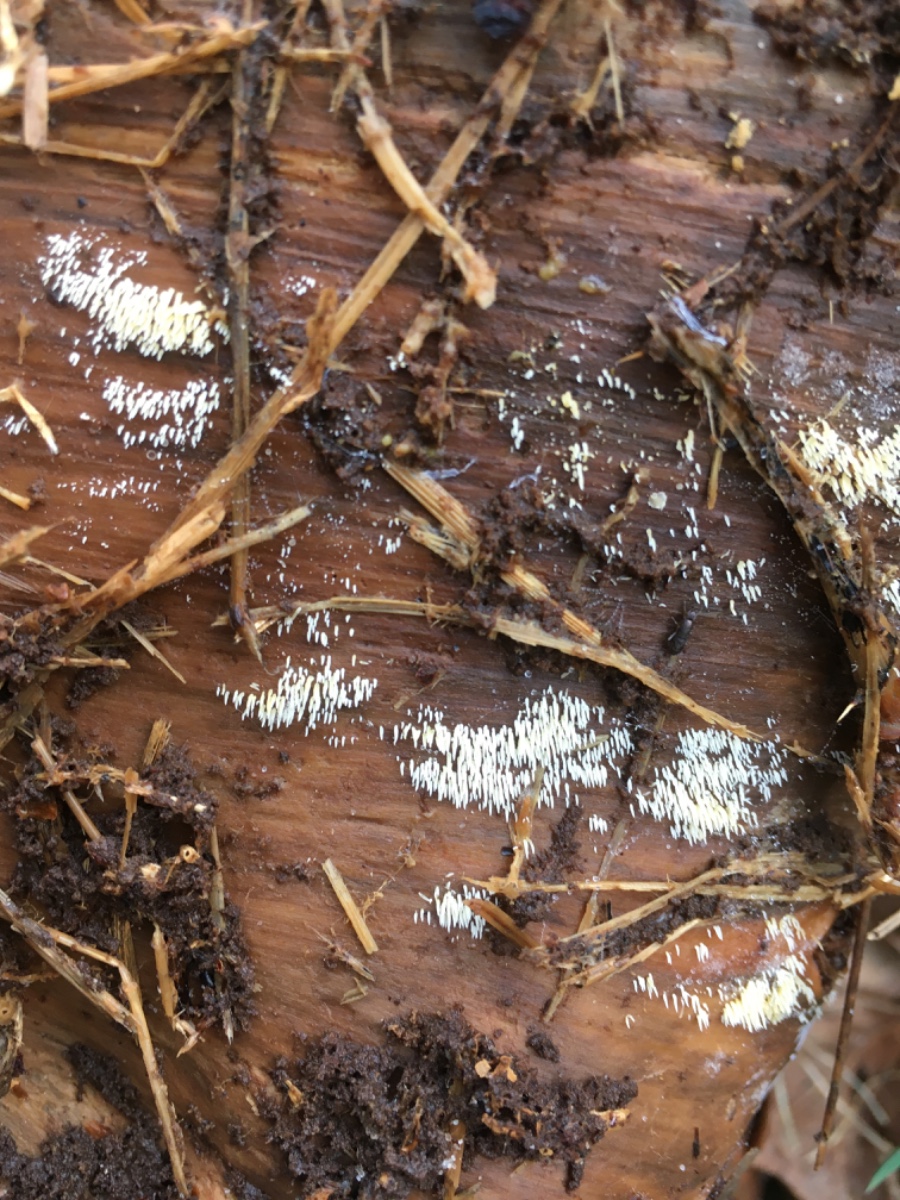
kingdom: Fungi
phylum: Basidiomycota
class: Agaricomycetes
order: Agaricales
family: Clavariaceae
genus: Mucronella
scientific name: Mucronella flava
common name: gul hængepig
